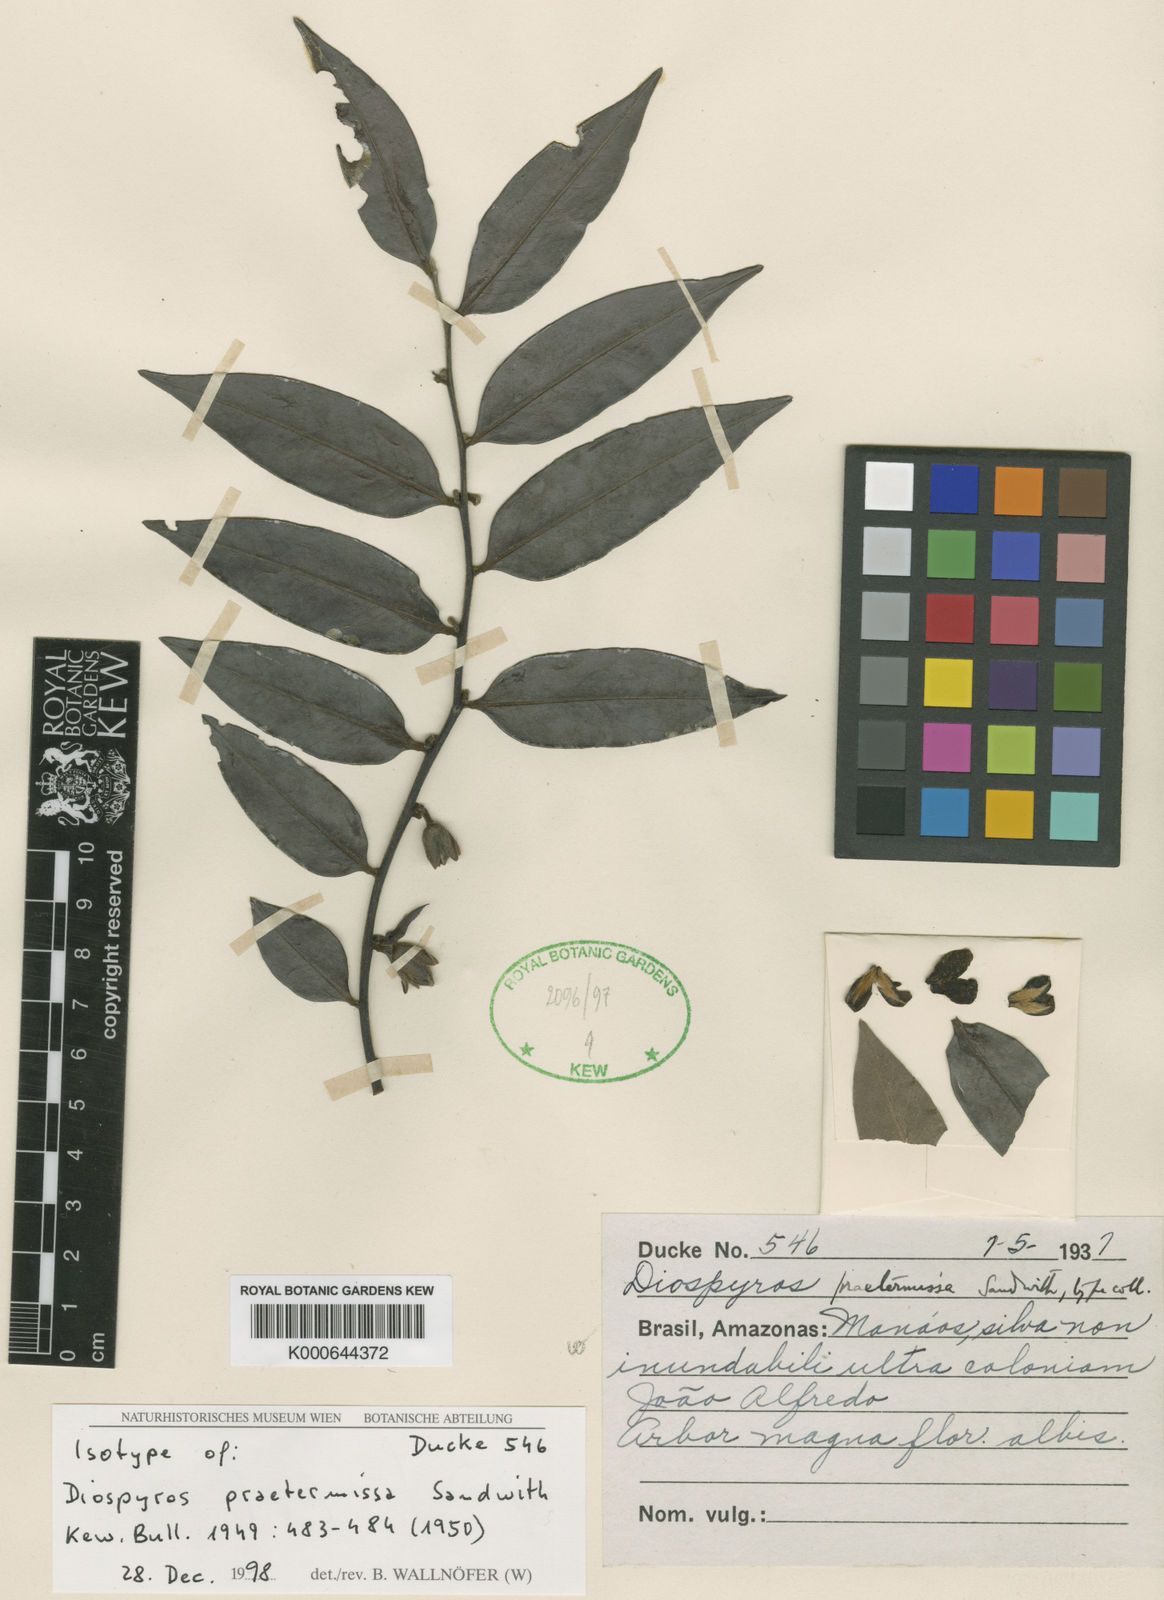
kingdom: Plantae
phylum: Tracheophyta
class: Magnoliopsida
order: Ericales
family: Ebenaceae
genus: Diospyros
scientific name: Diospyros sericea
